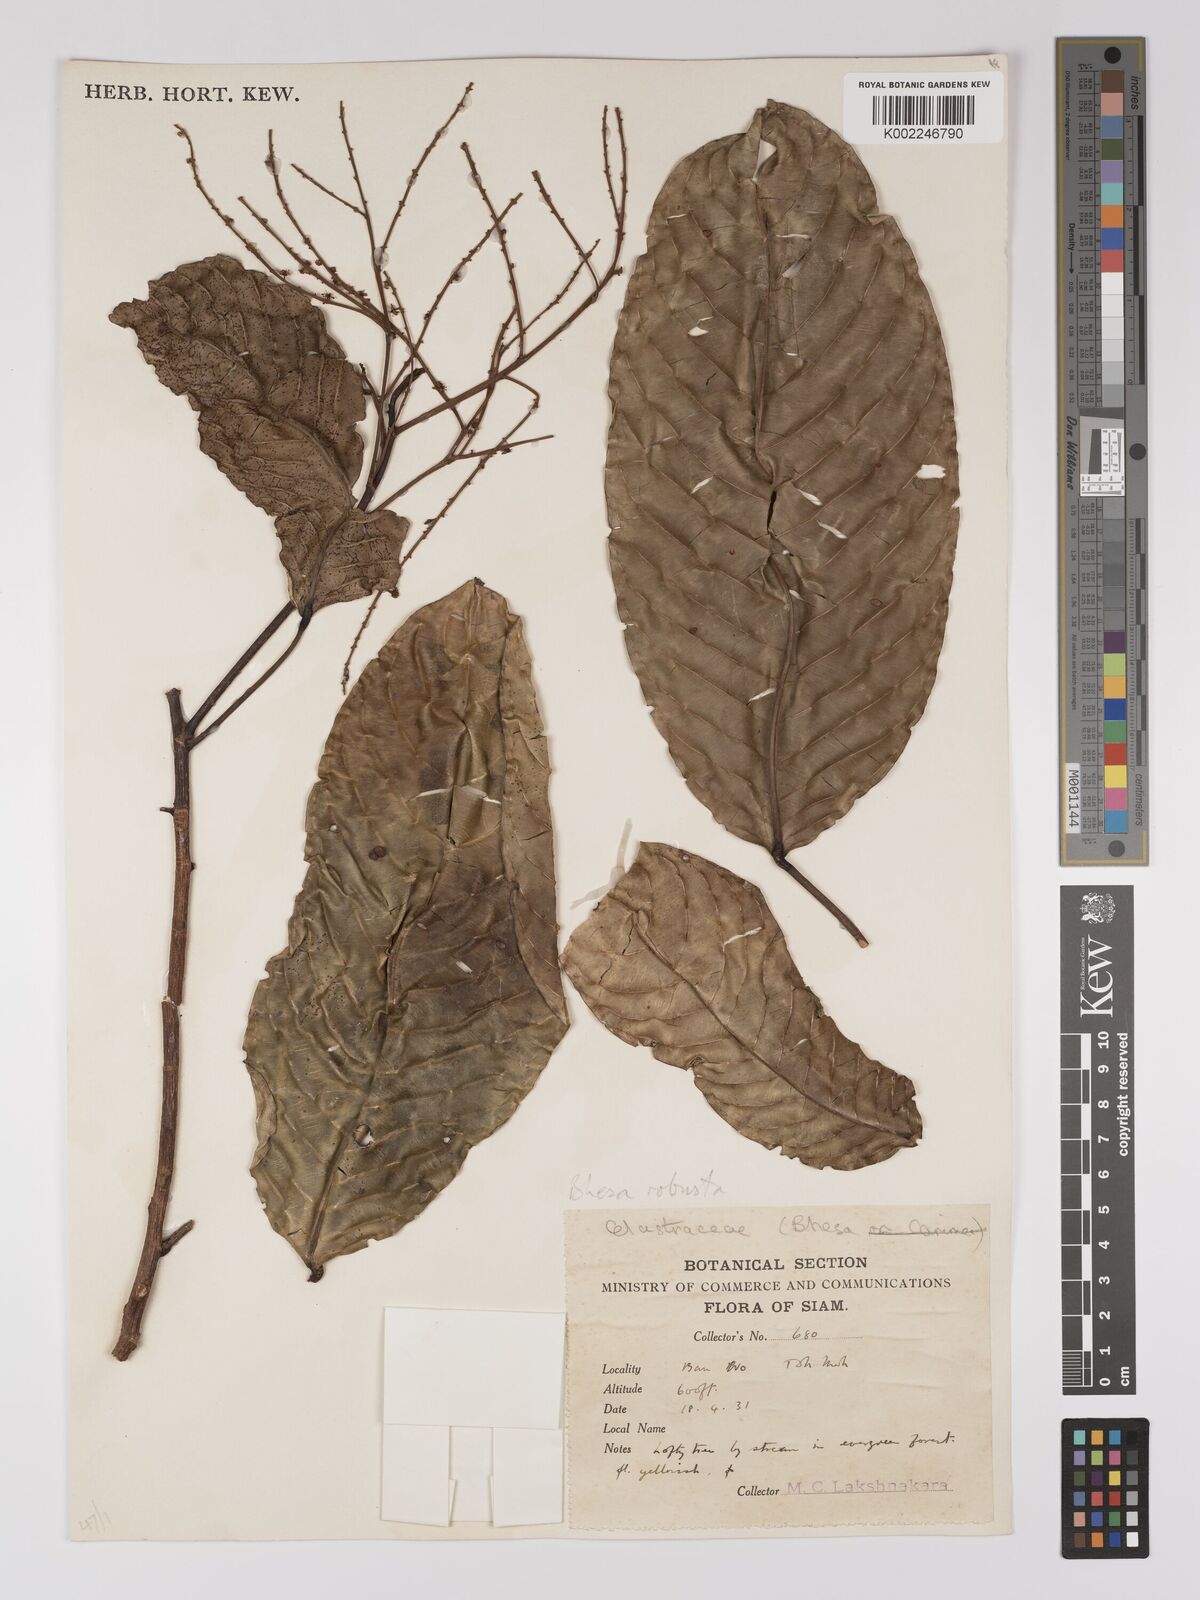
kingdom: Plantae
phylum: Tracheophyta
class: Magnoliopsida
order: Malpighiales
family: Centroplacaceae
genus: Bhesa
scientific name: Bhesa
